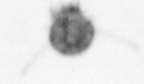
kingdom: Animalia
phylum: Annelida
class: Polychaeta
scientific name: Polychaeta
